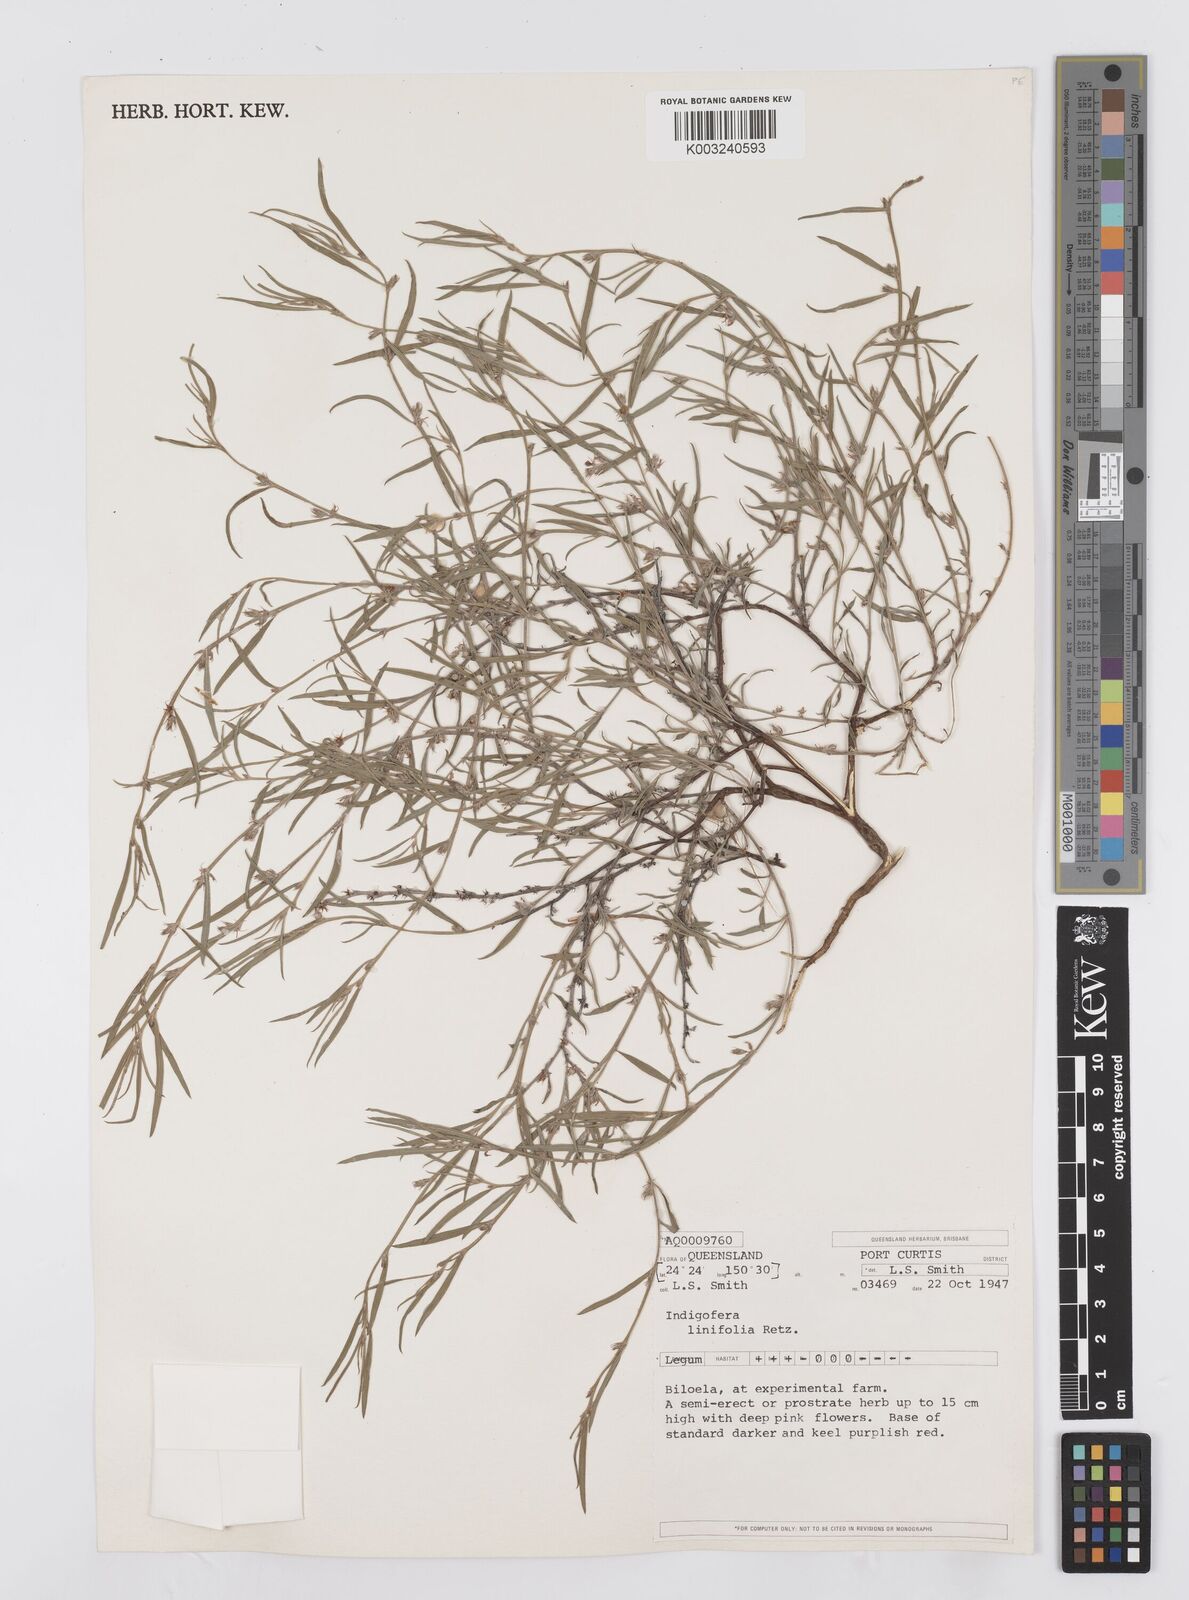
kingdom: Plantae
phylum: Tracheophyta
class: Magnoliopsida
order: Fabales
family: Fabaceae
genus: Indigofera
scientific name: Indigofera linifolia
